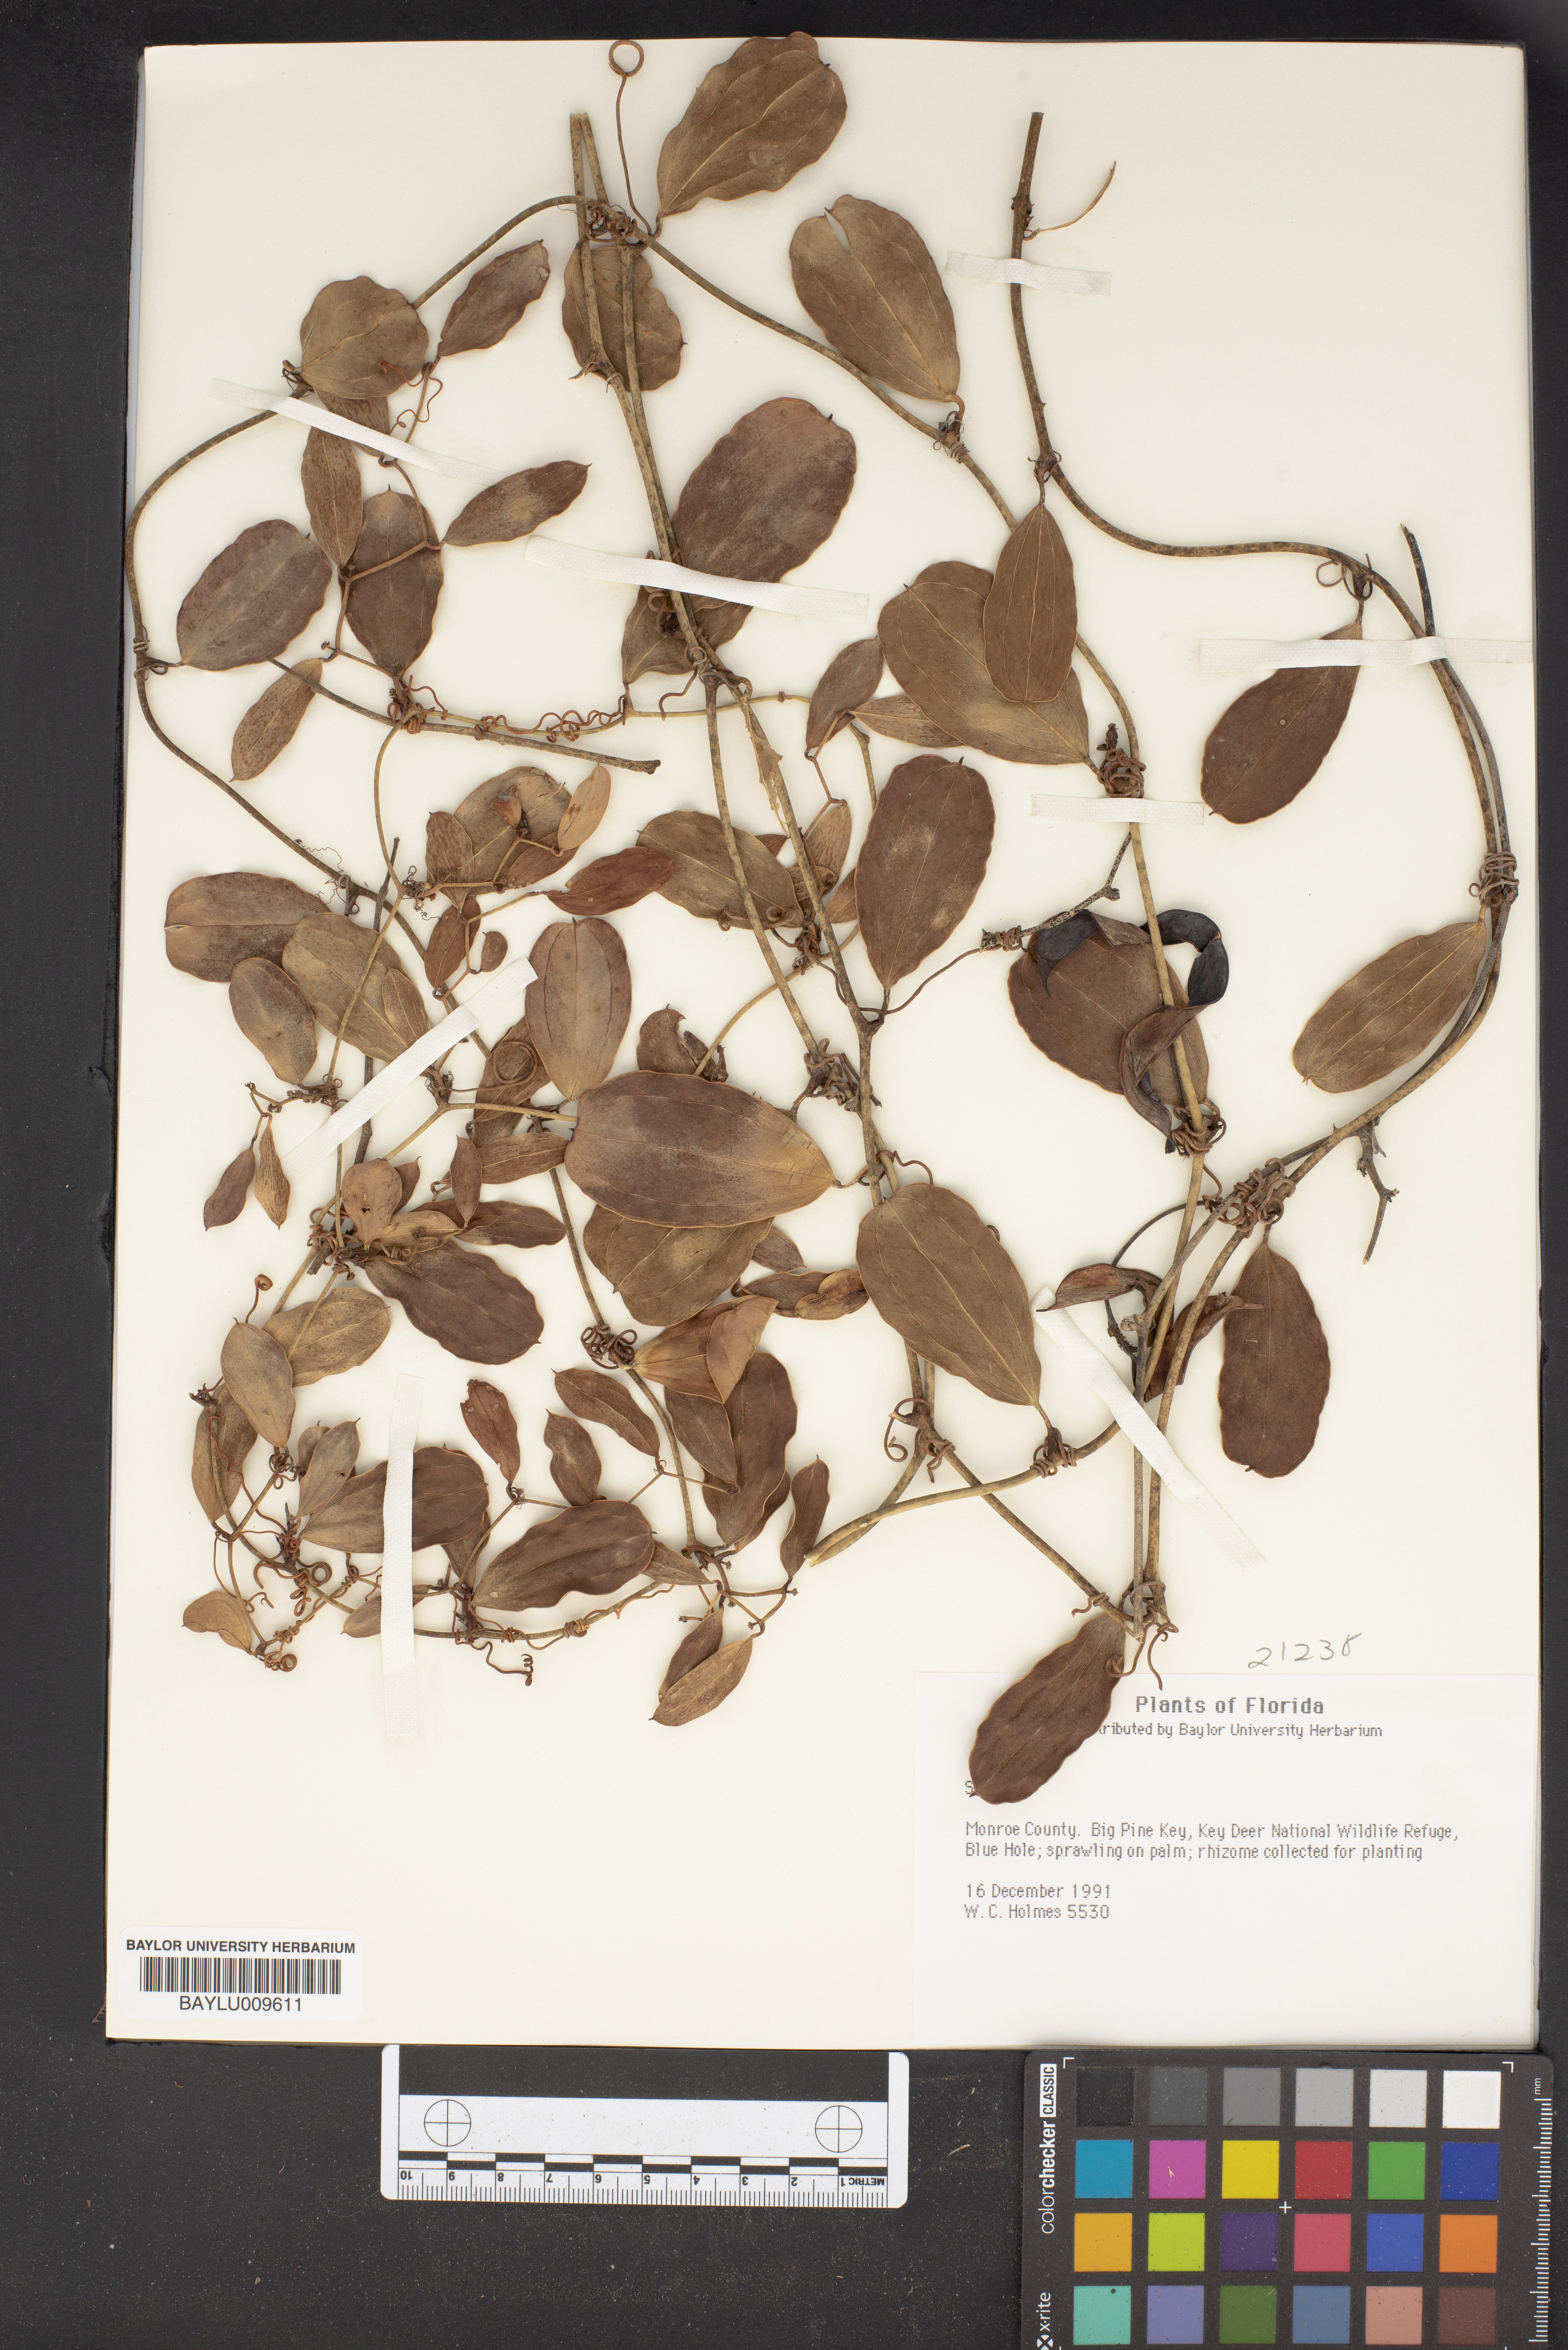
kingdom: Plantae
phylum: Tracheophyta
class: Liliopsida
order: Liliales
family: Smilacaceae
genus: Smilax
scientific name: Smilax
